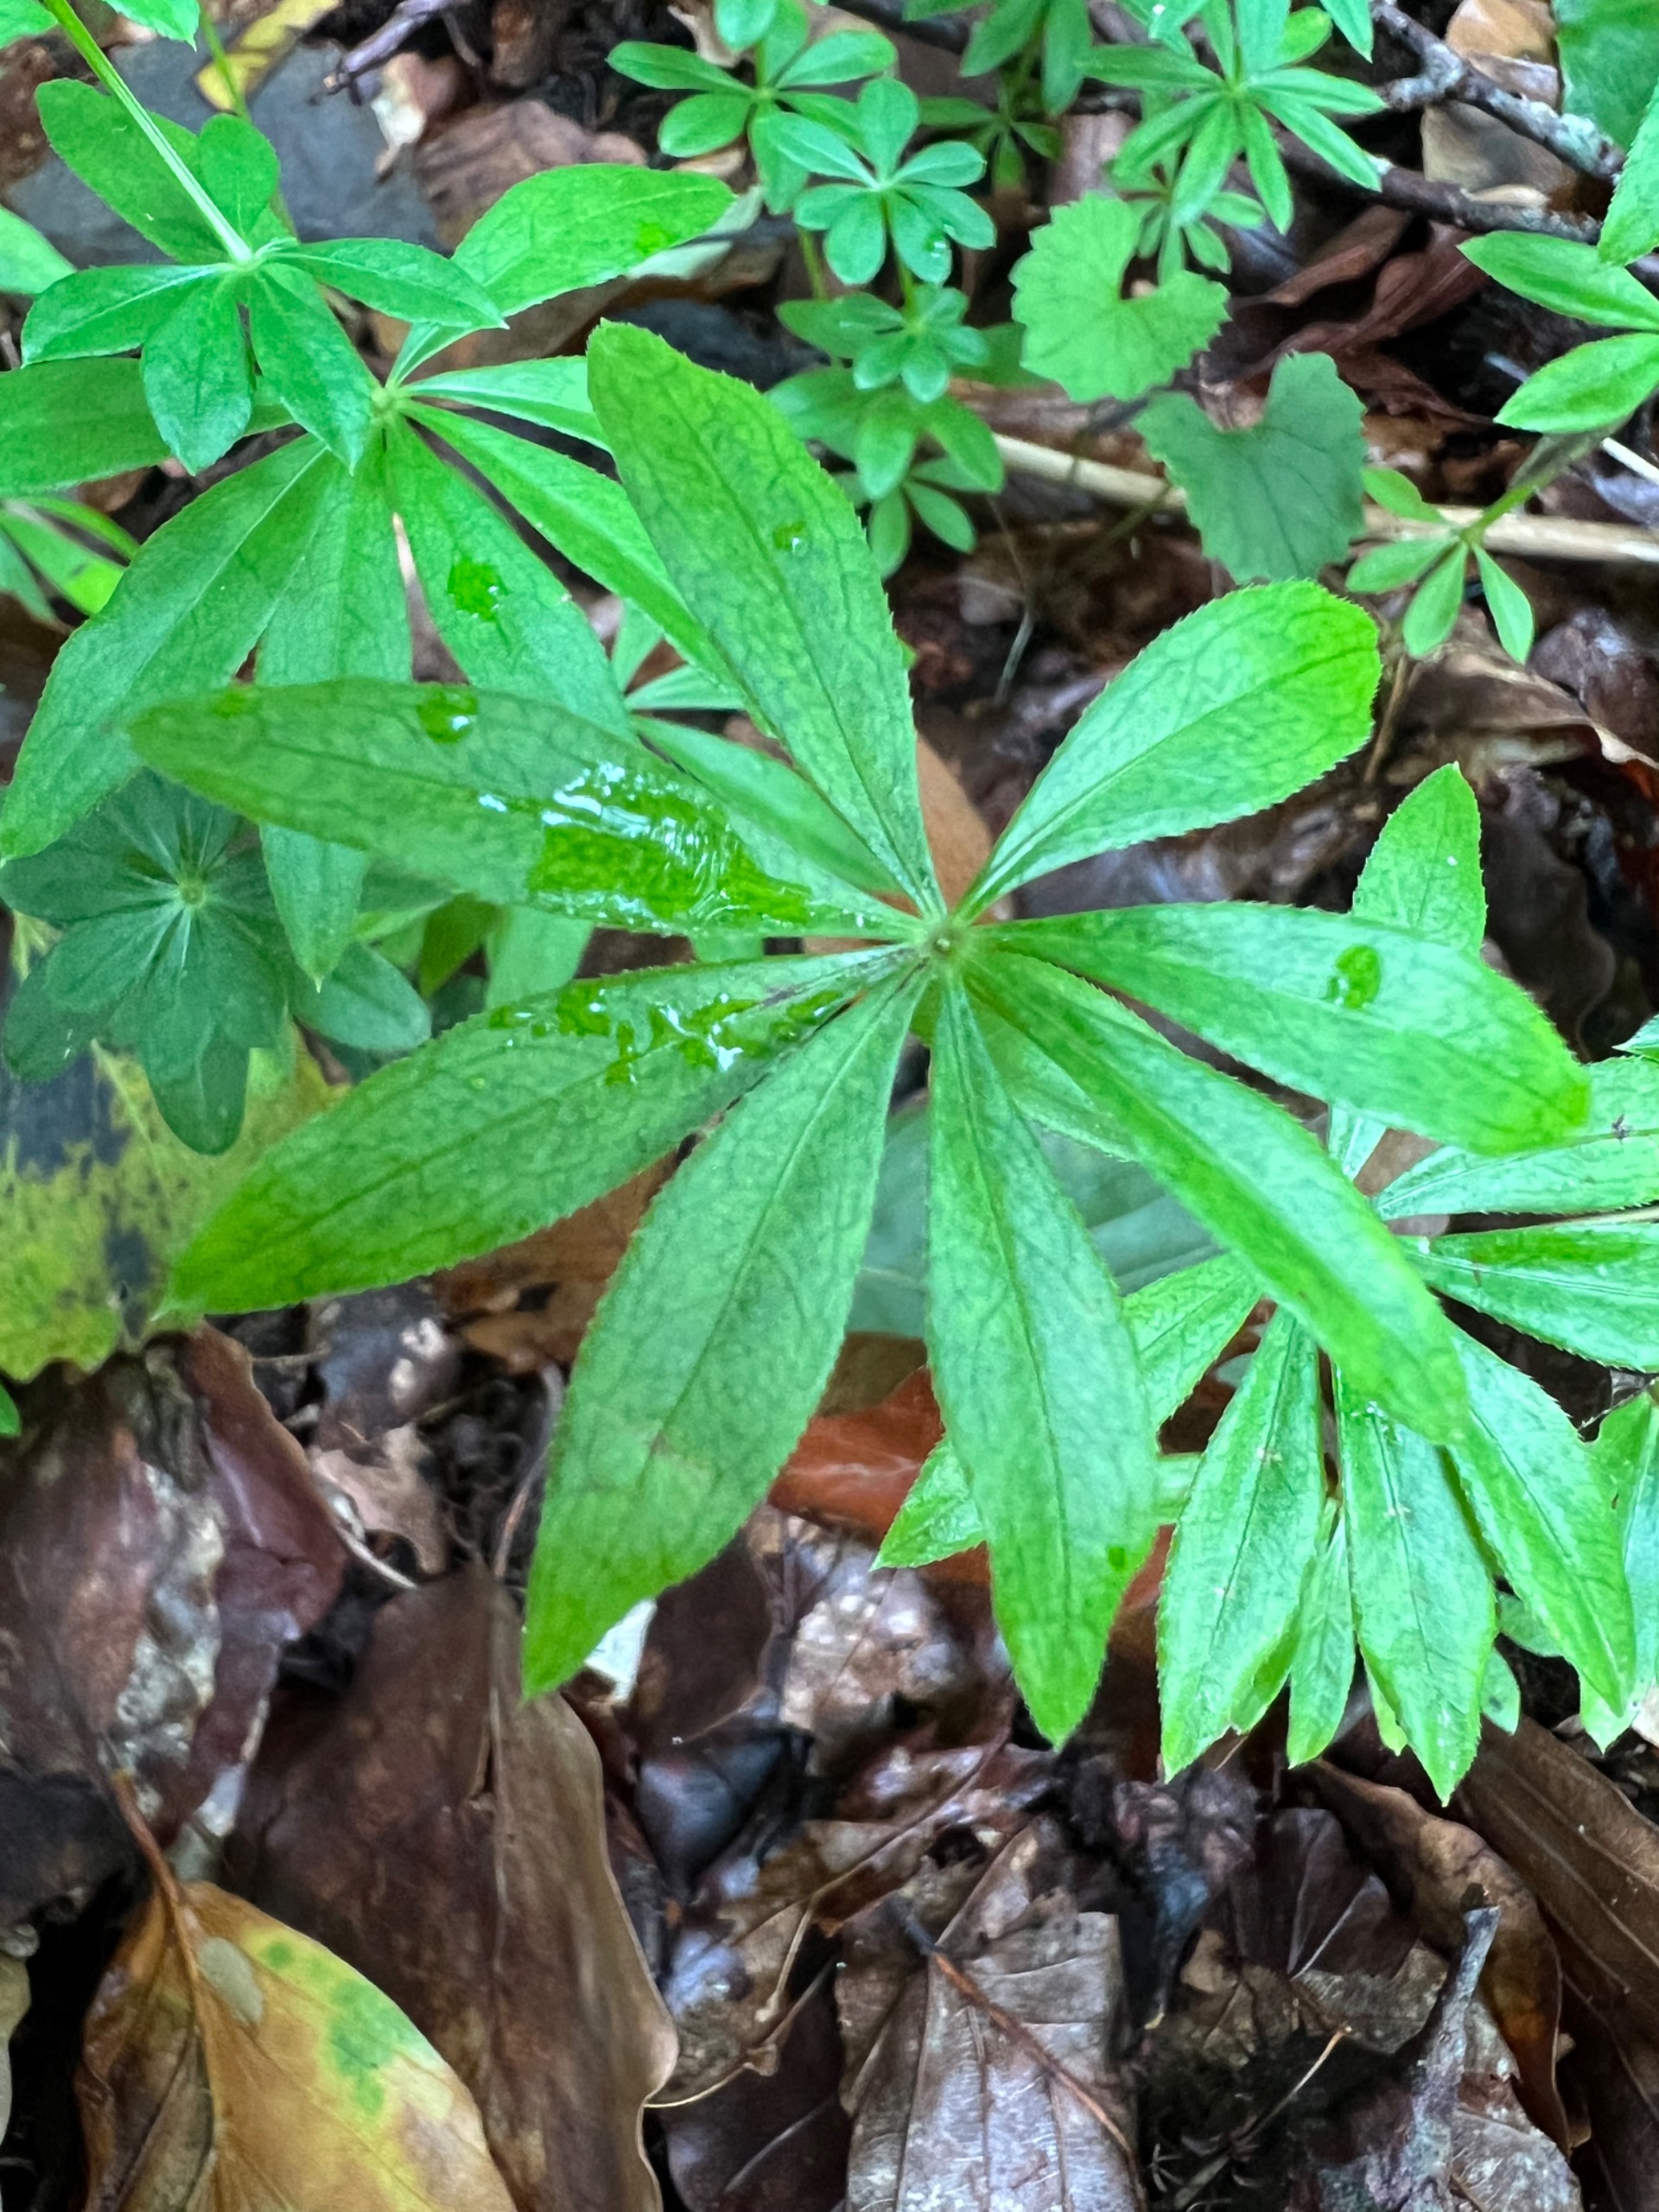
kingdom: Plantae
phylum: Tracheophyta
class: Magnoliopsida
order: Gentianales
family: Rubiaceae
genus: Galium
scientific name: Galium odoratum
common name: Skovmærke
